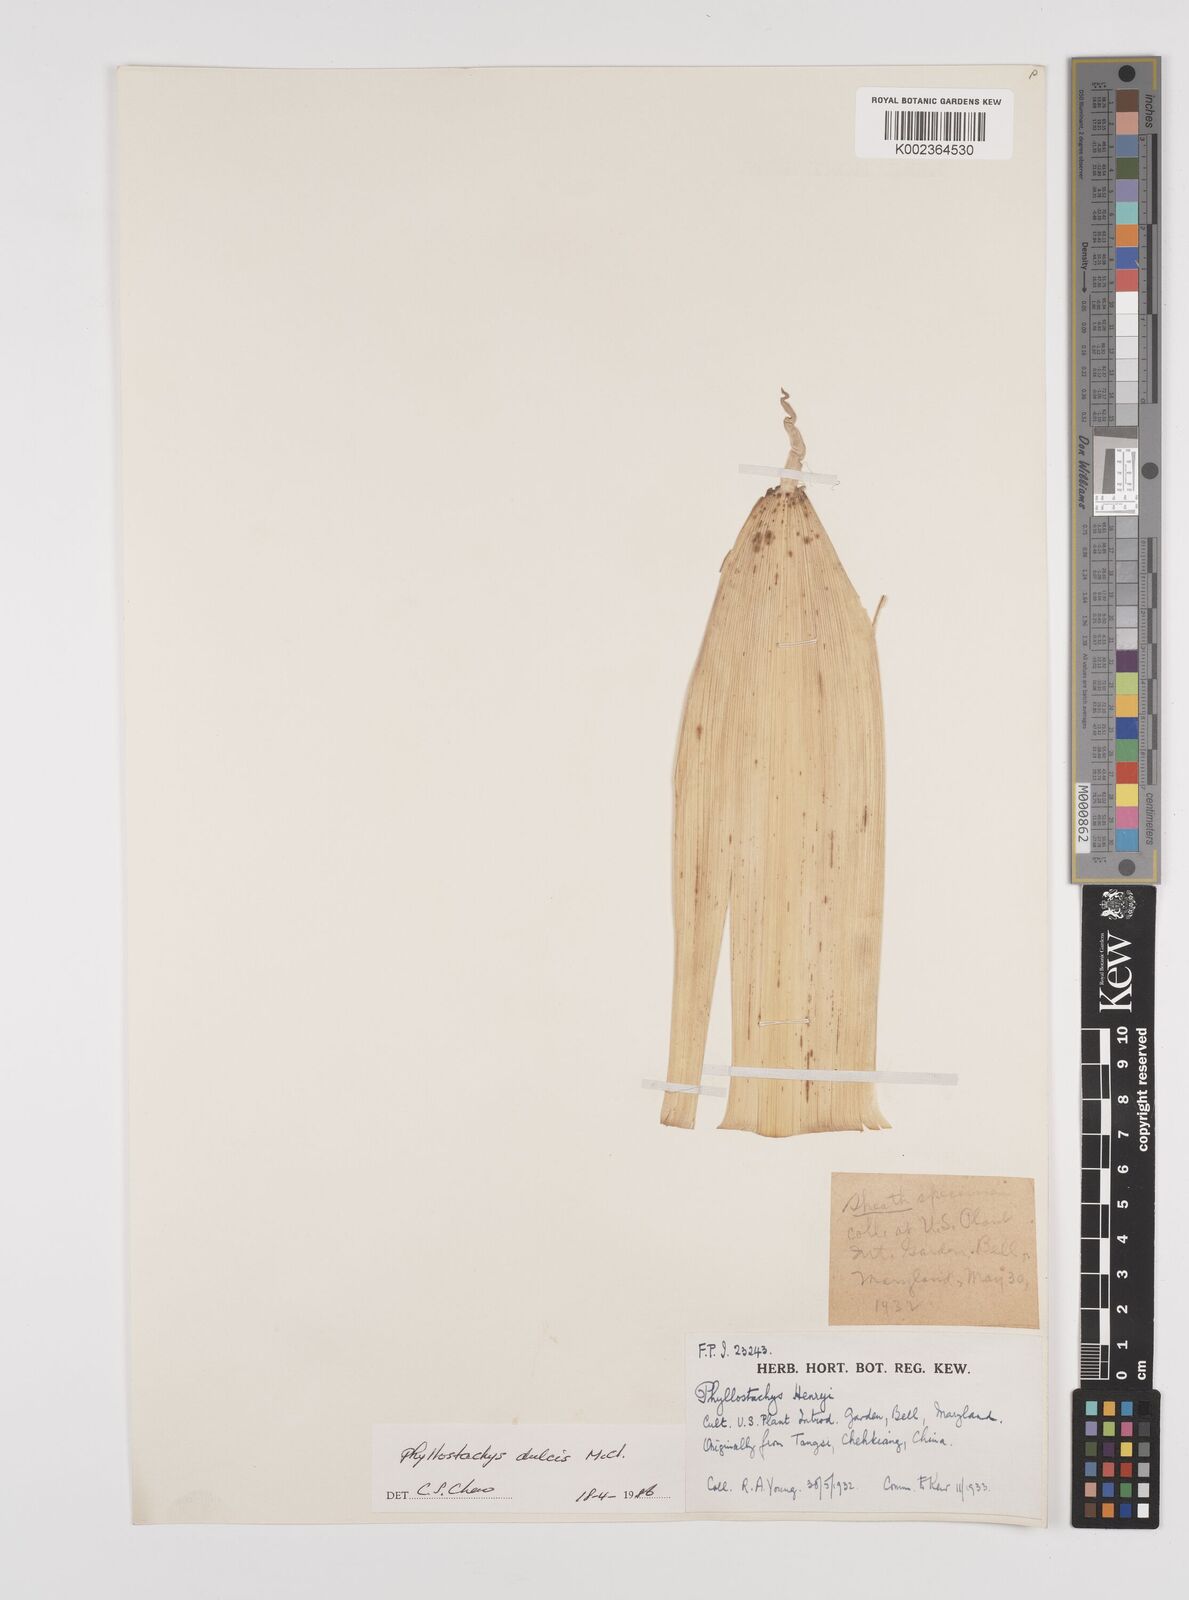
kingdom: Plantae
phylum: Tracheophyta
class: Liliopsida
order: Poales
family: Poaceae
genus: Phyllostachys
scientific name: Phyllostachys dulcis
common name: Sweetshoot bamboo
